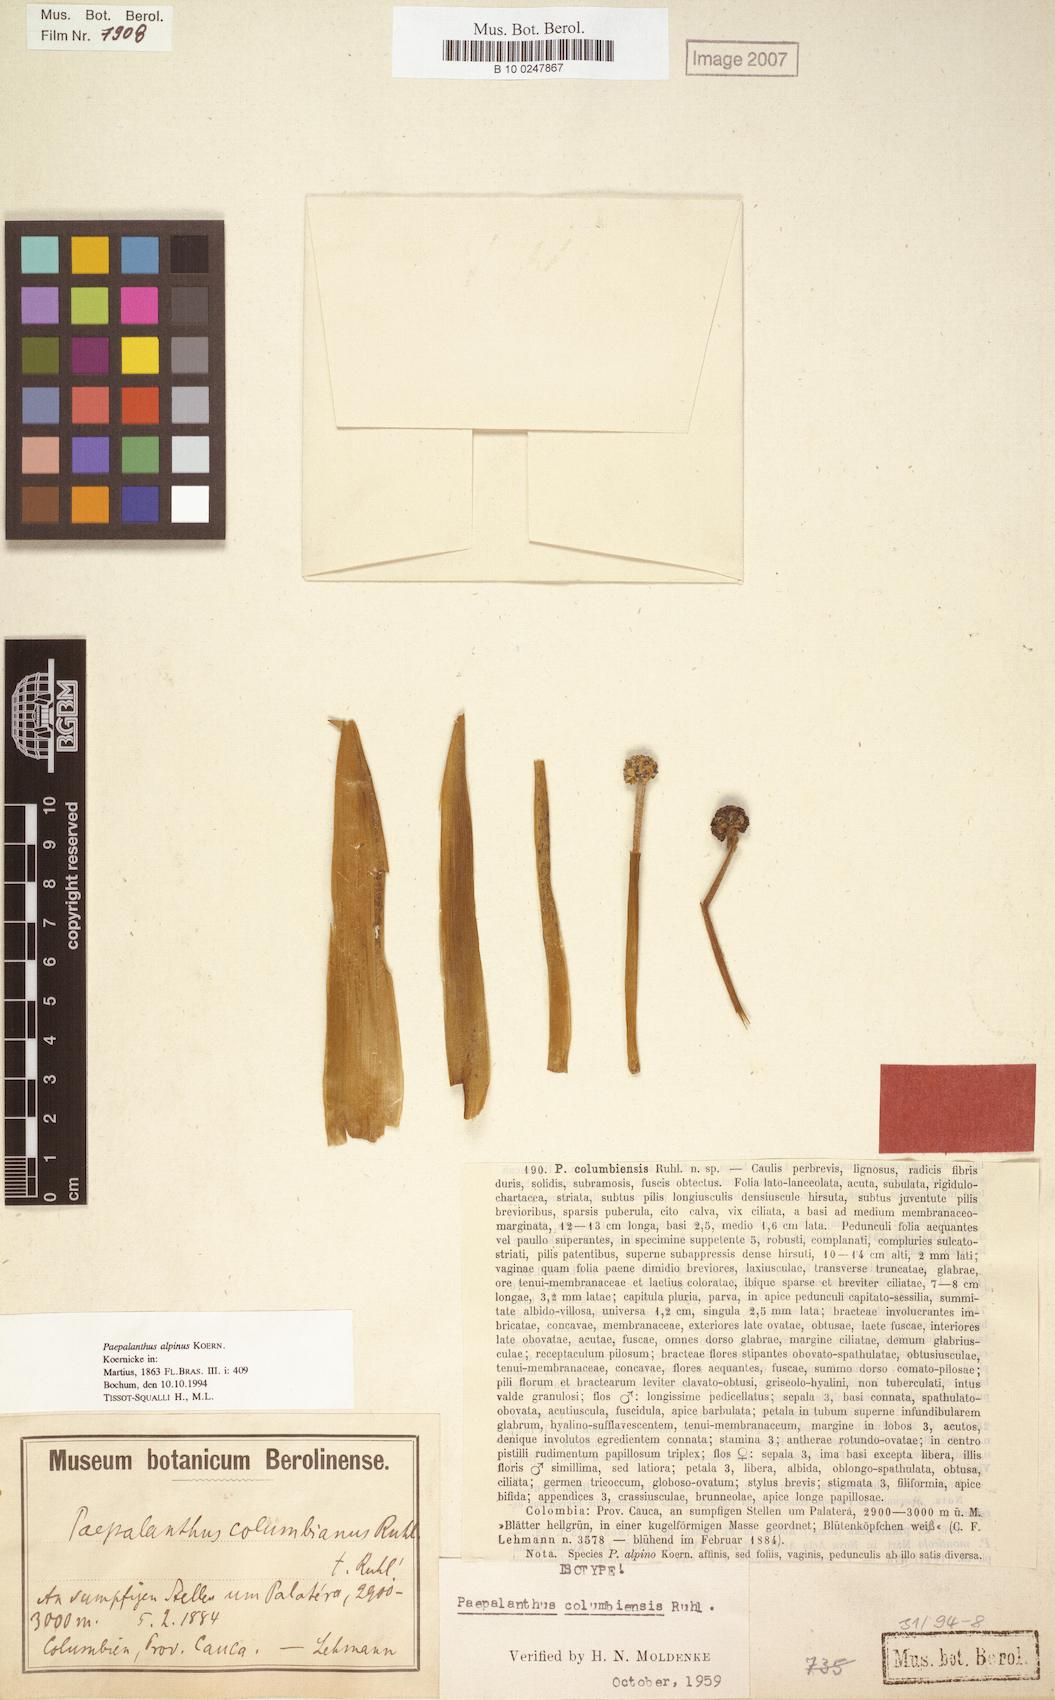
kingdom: Plantae
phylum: Tracheophyta
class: Liliopsida
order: Poales
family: Eriocaulaceae
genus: Paepalanthus
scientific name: Paepalanthus alpinus
